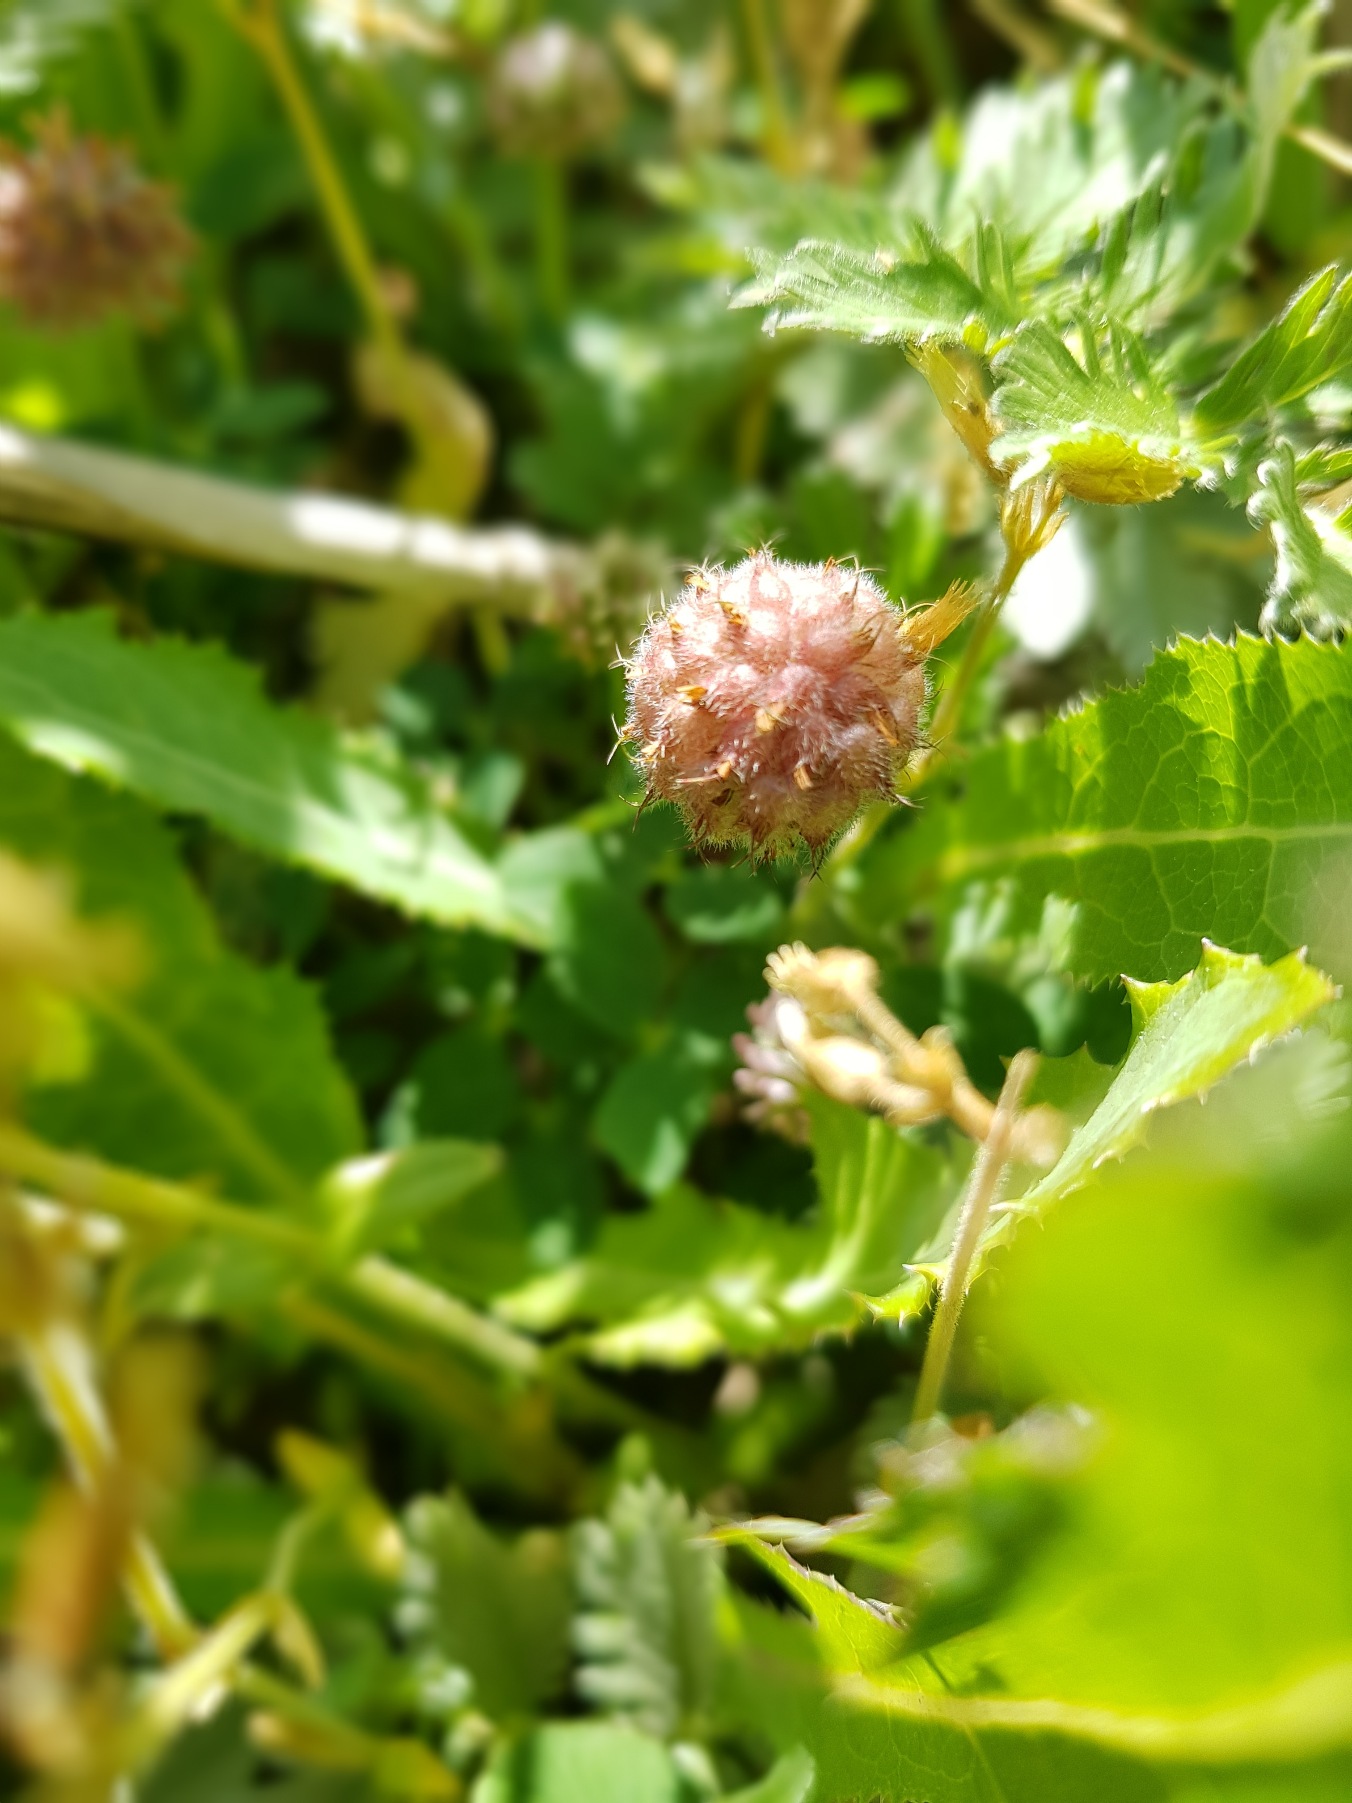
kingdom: Plantae
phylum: Tracheophyta
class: Magnoliopsida
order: Fabales
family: Fabaceae
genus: Trifolium
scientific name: Trifolium fragiferum
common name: Jordbær-kløver
